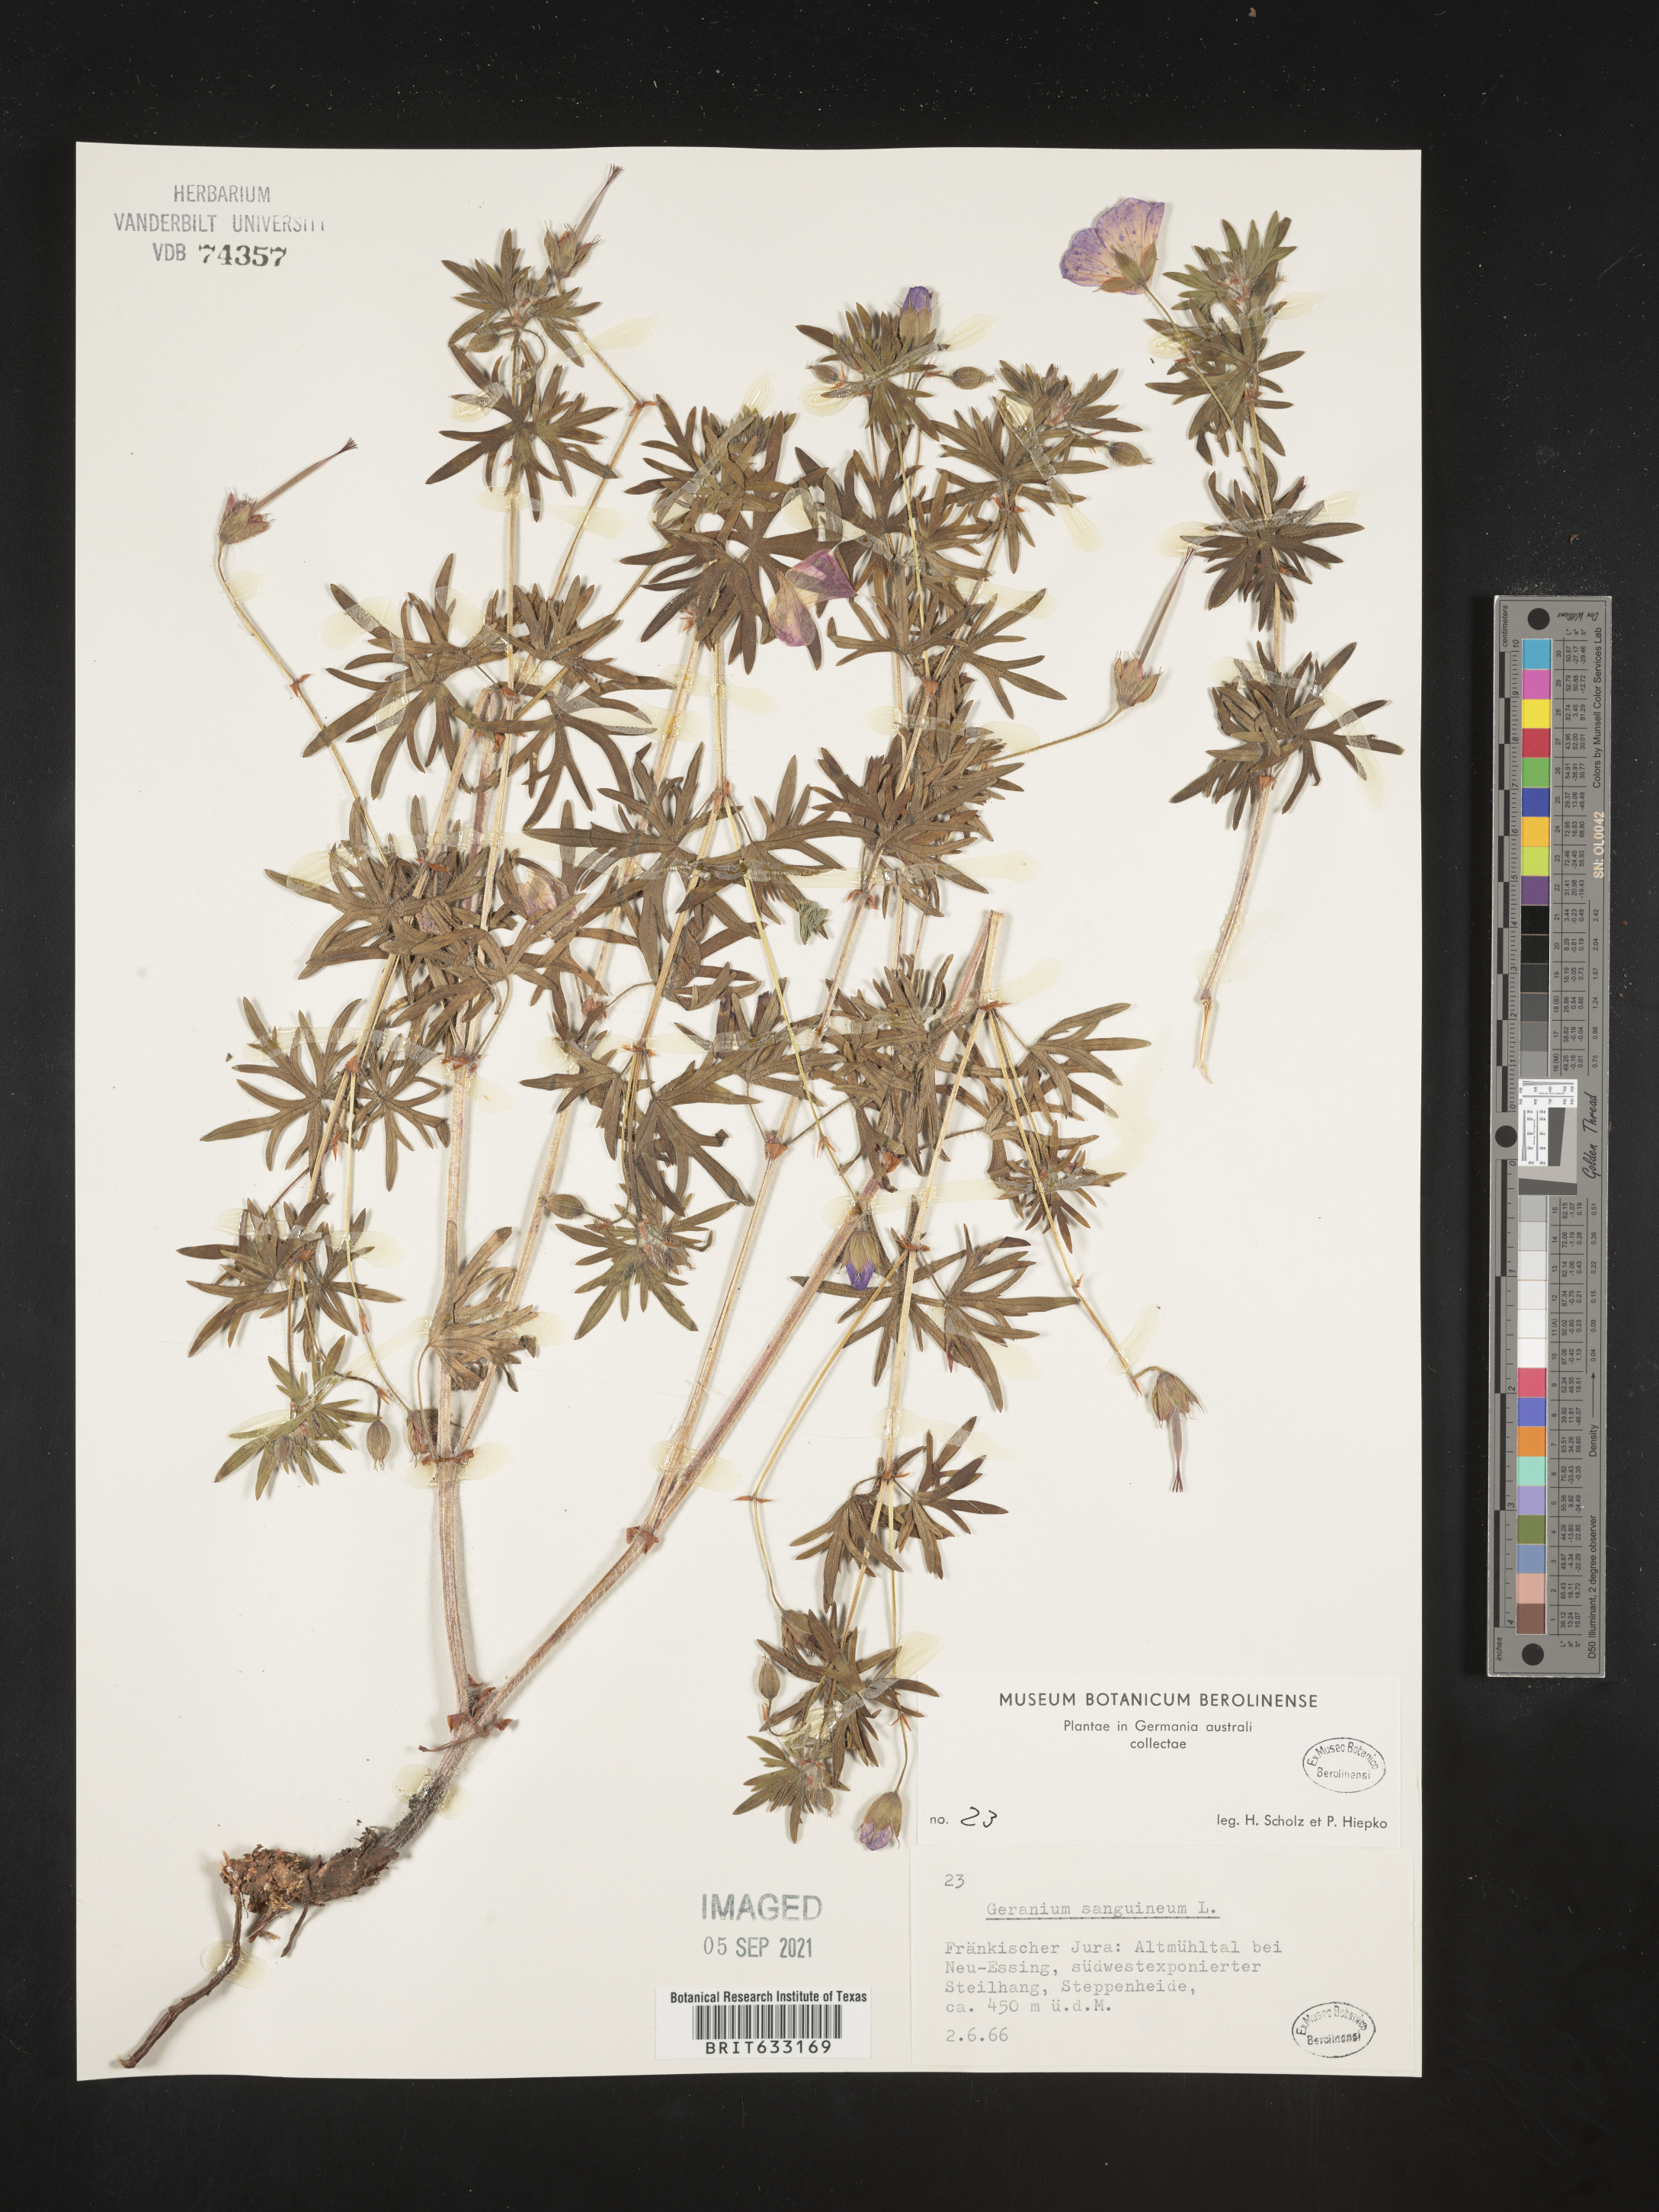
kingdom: Plantae
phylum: Tracheophyta
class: Magnoliopsida
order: Geraniales
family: Geraniaceae
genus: Geranium
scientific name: Geranium
